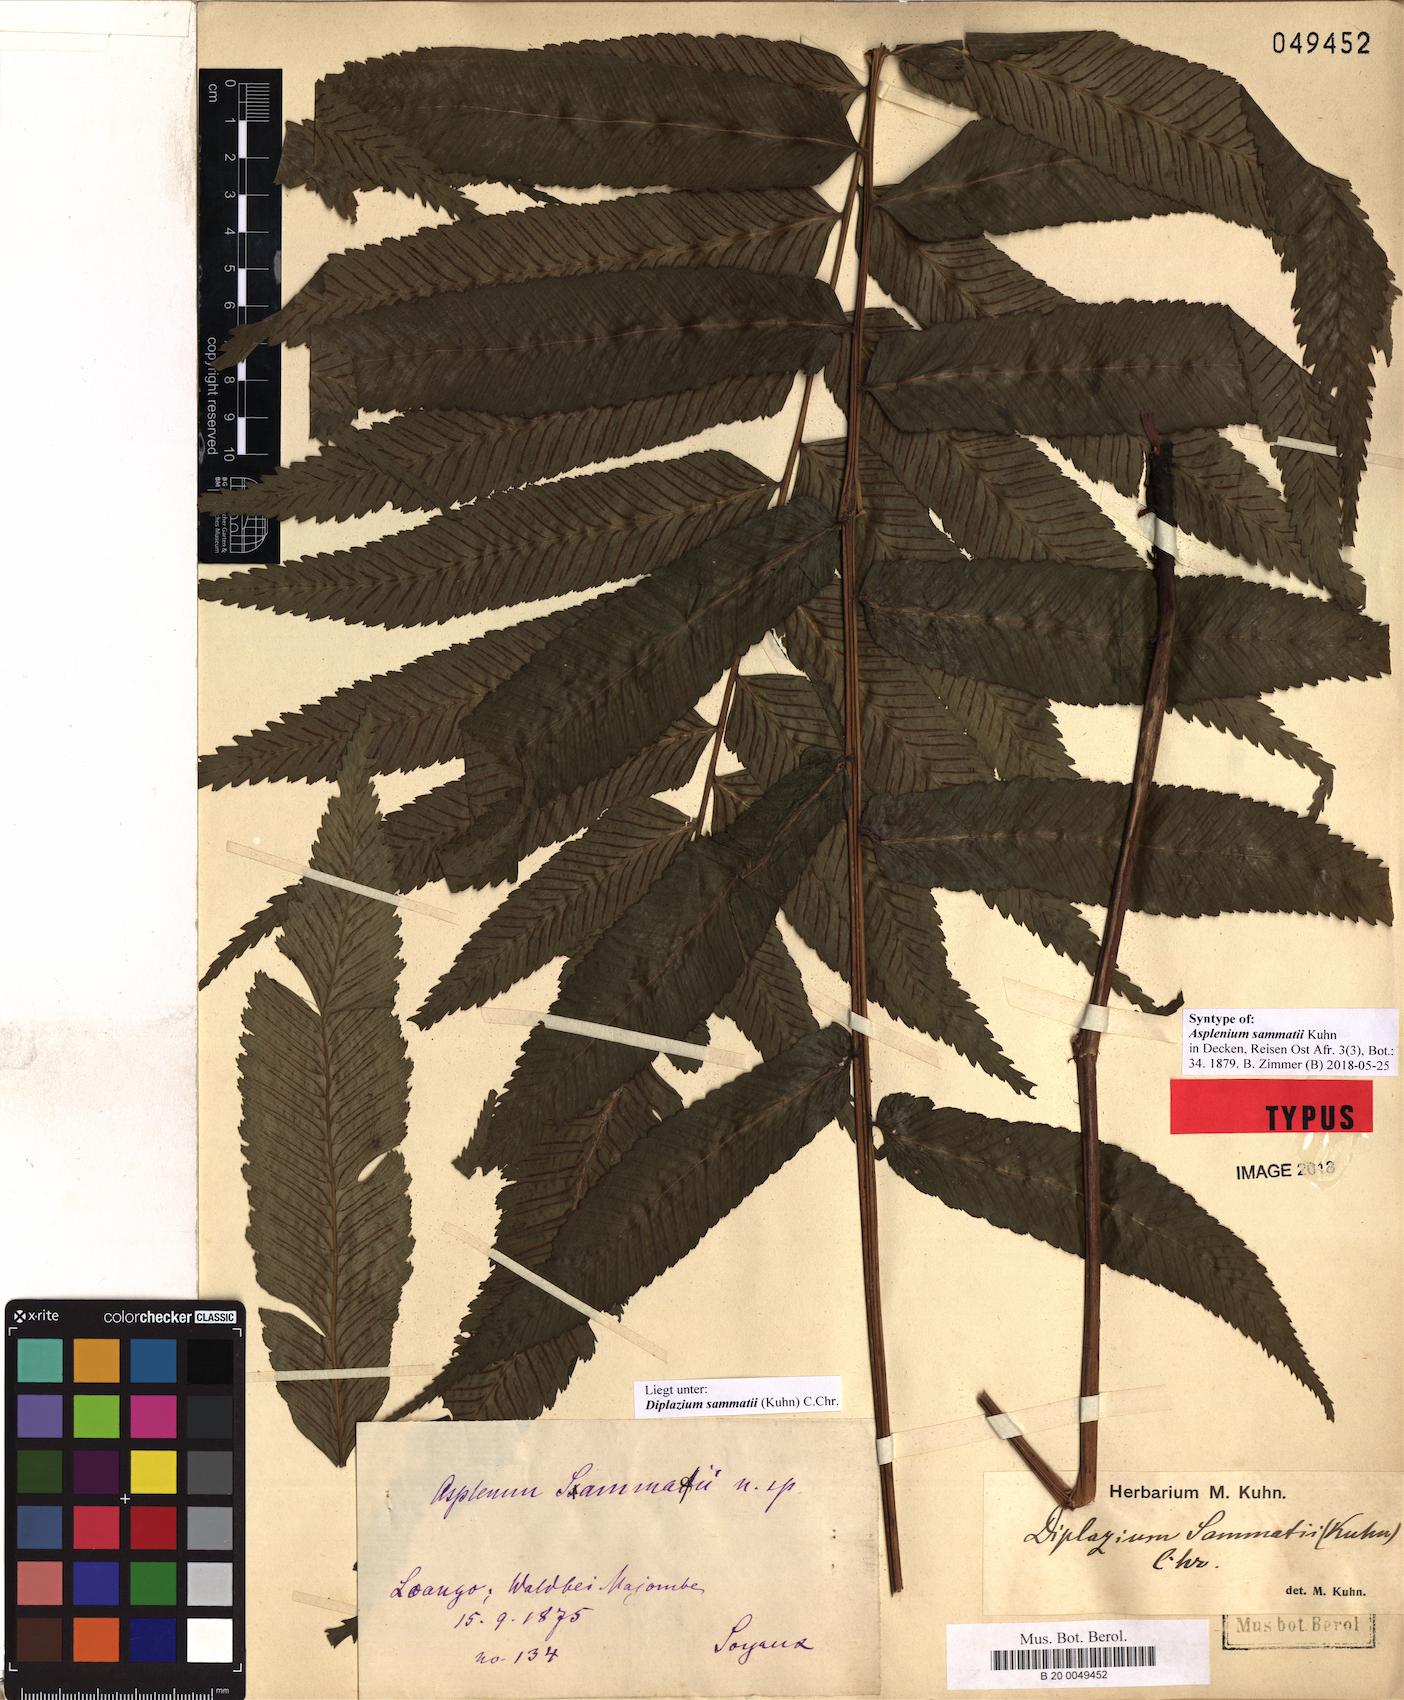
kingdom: Plantae
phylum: Tracheophyta
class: Polypodiopsida
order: Polypodiales
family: Athyriaceae
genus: Diplazium
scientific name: Diplazium sammatii
